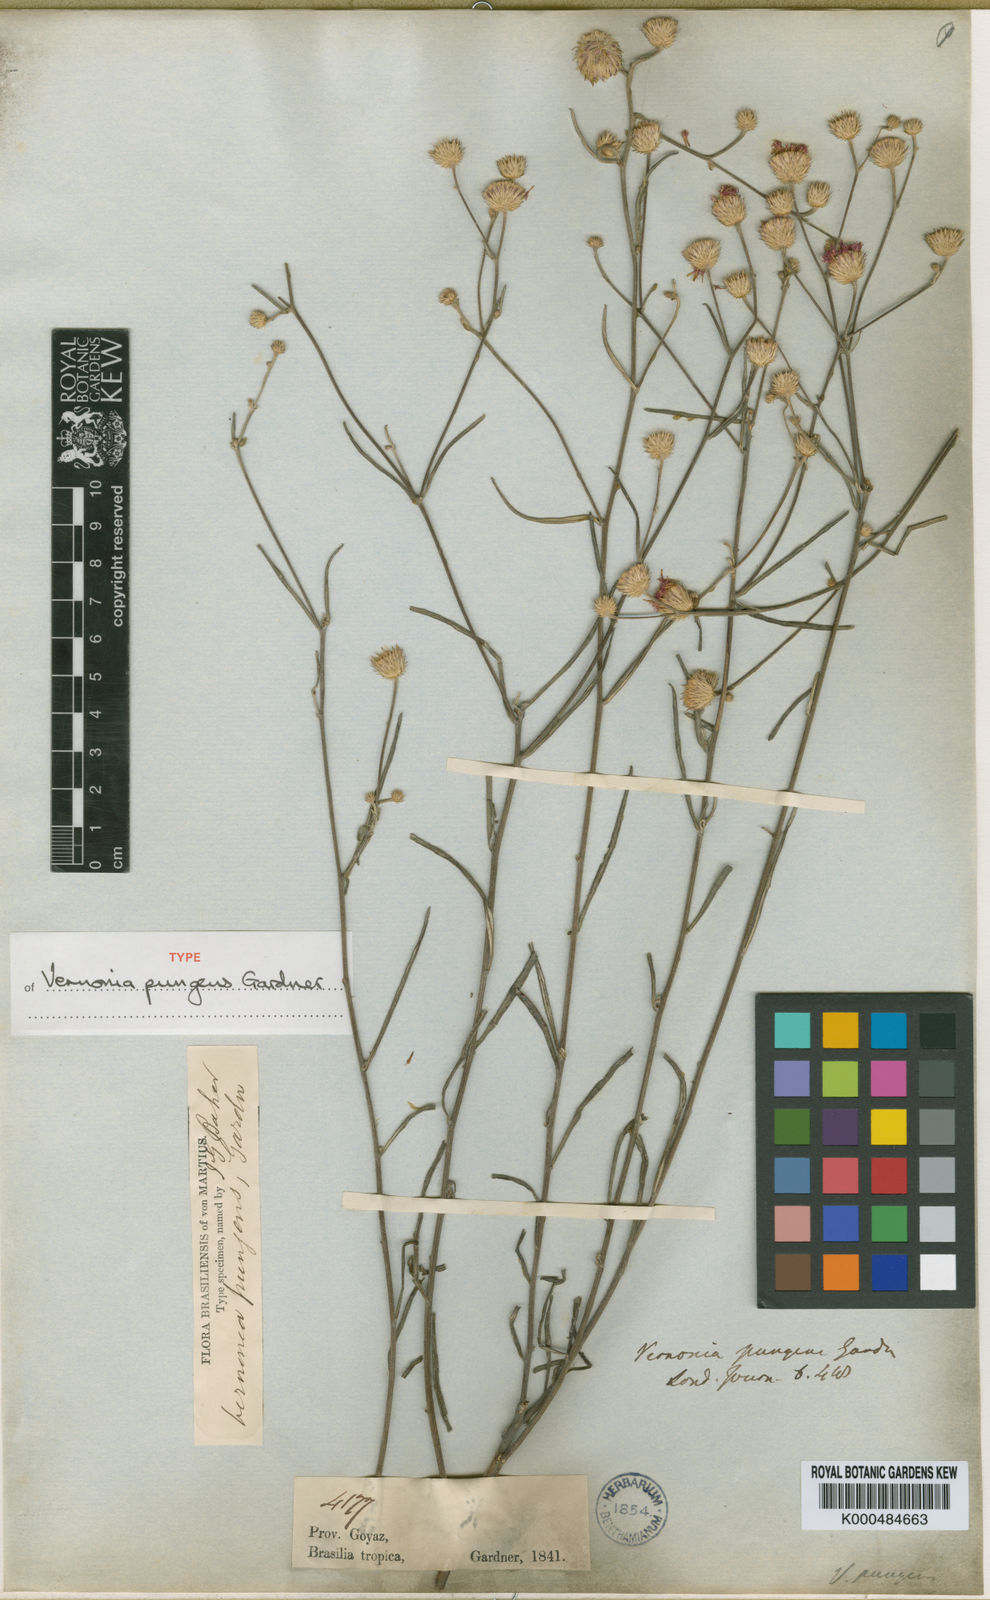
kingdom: Plantae
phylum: Tracheophyta
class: Magnoliopsida
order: Asterales
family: Asteraceae
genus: Echinocoryne
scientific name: Echinocoryne pungens
